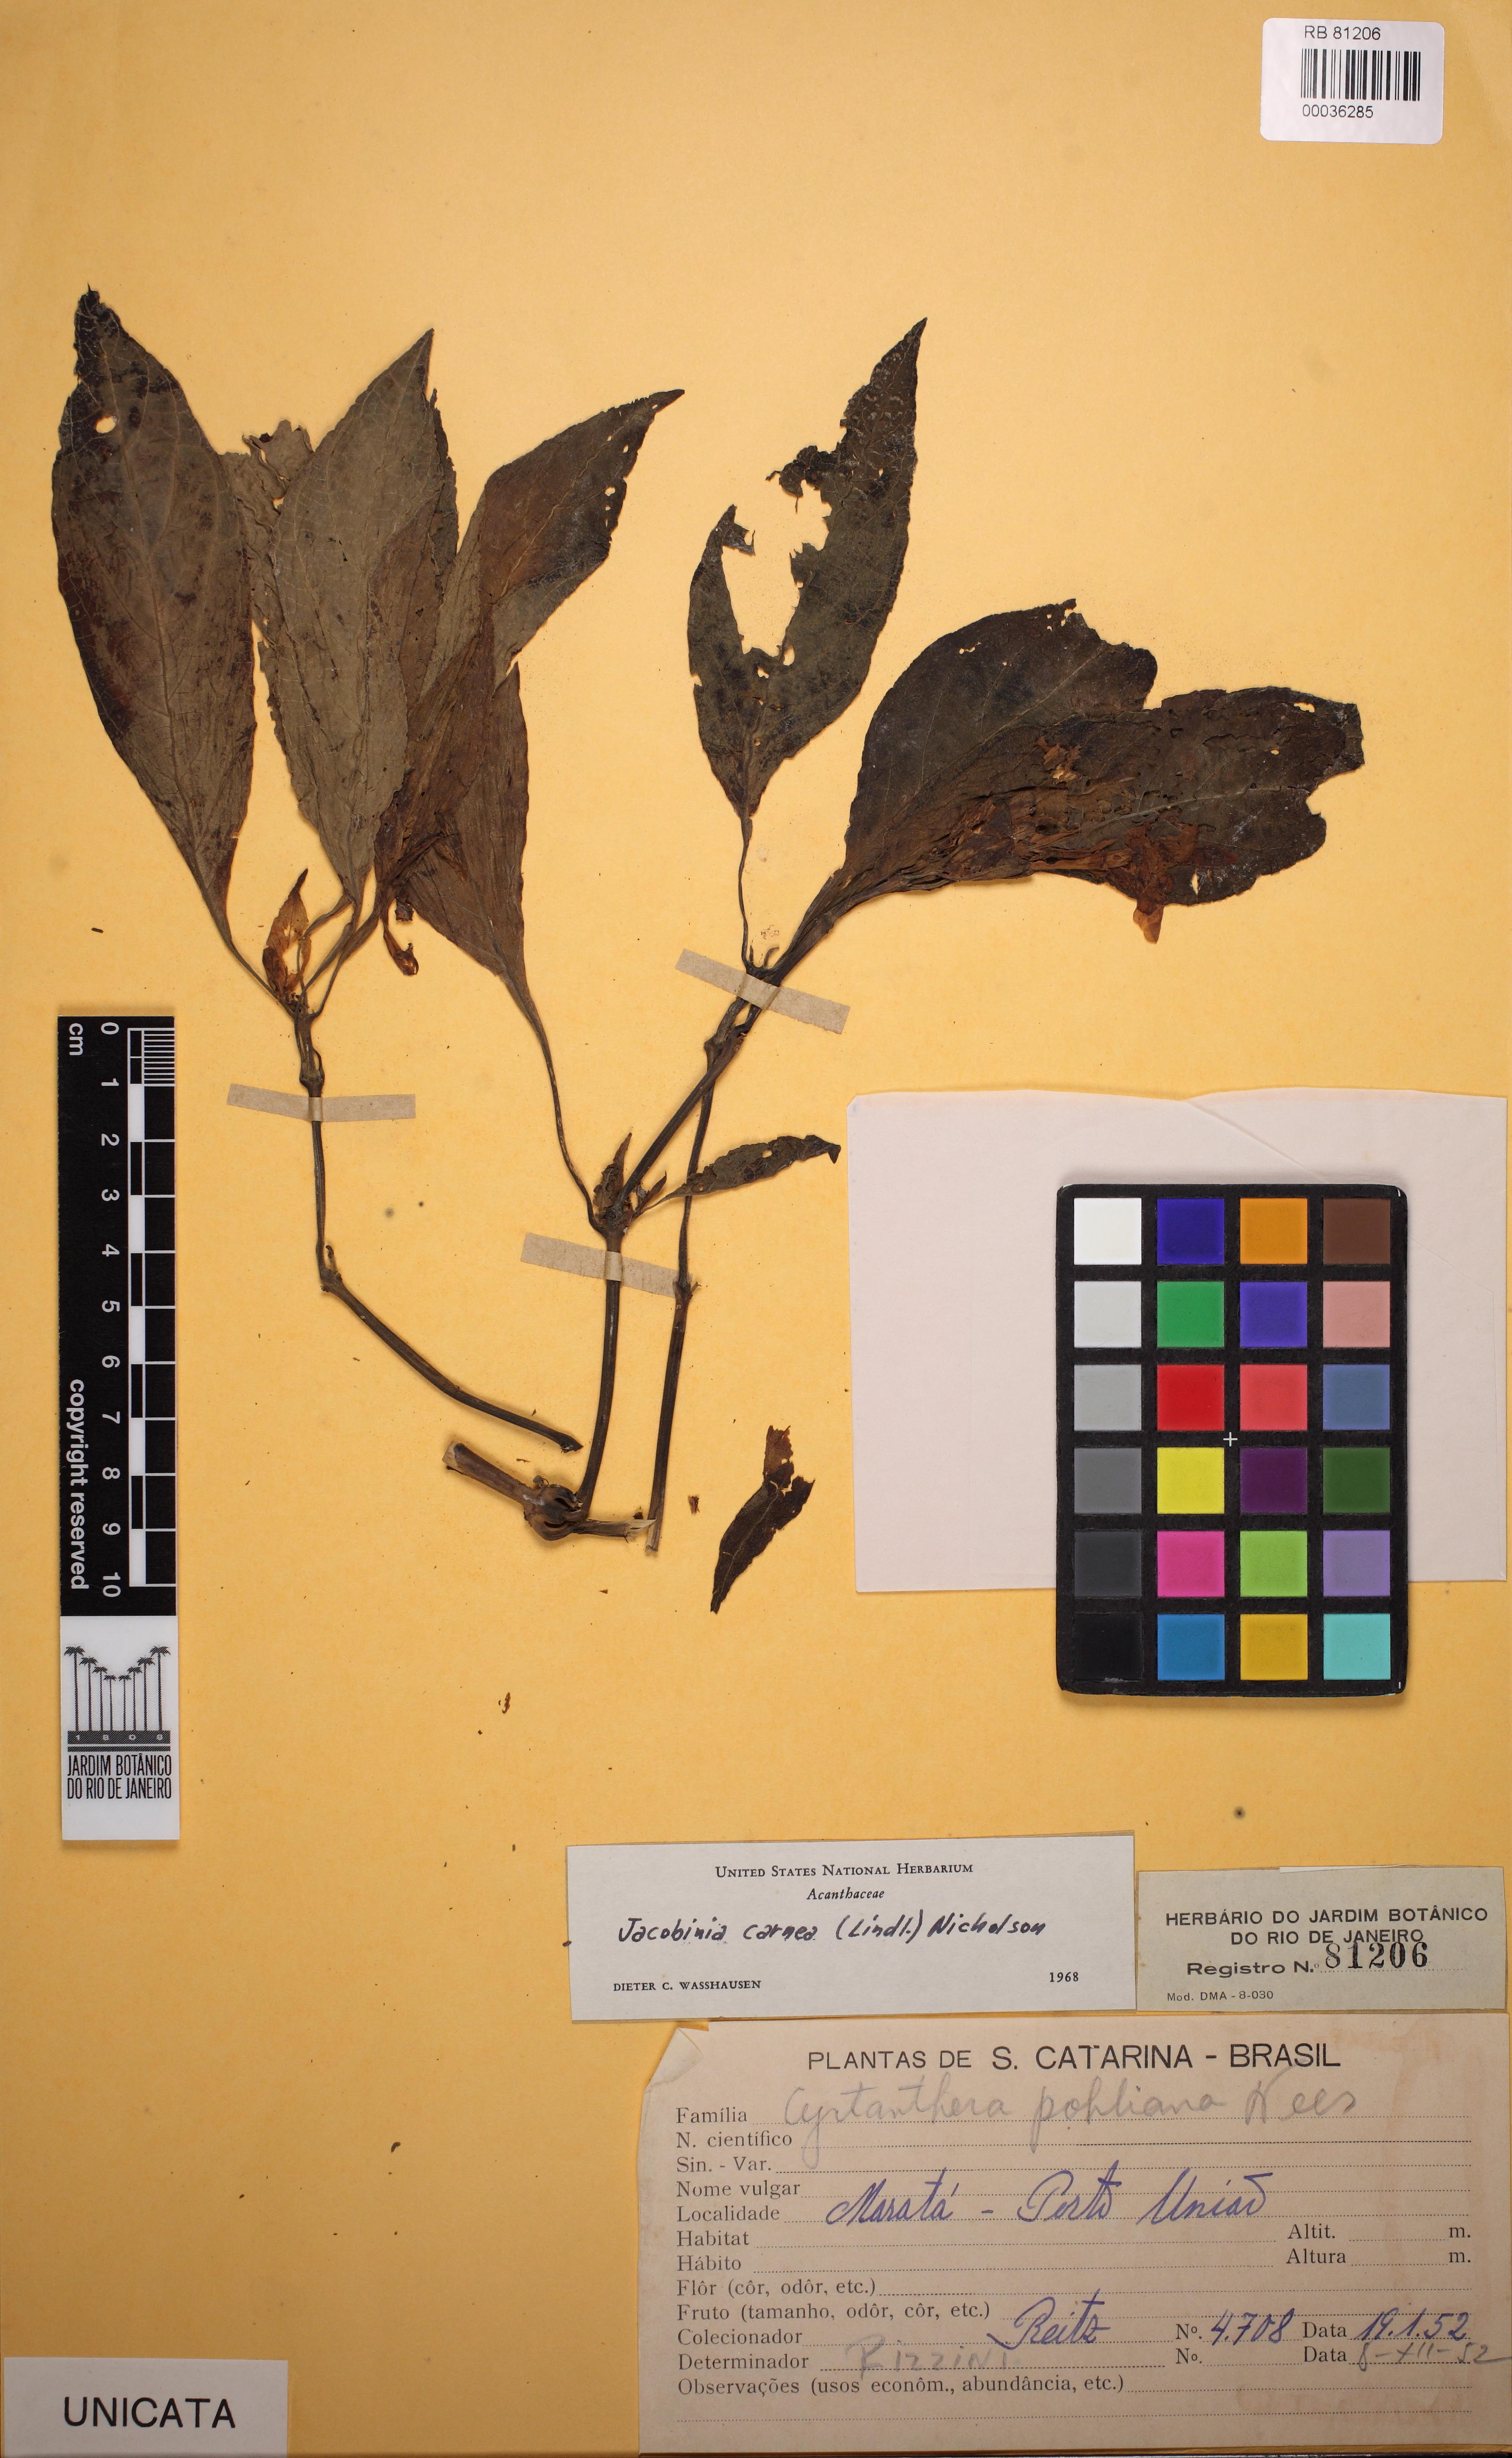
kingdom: Plantae
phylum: Tracheophyta
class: Magnoliopsida
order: Lamiales
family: Acanthaceae
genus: Justicia
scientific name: Justicia carnea
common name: Brazilian-plume
